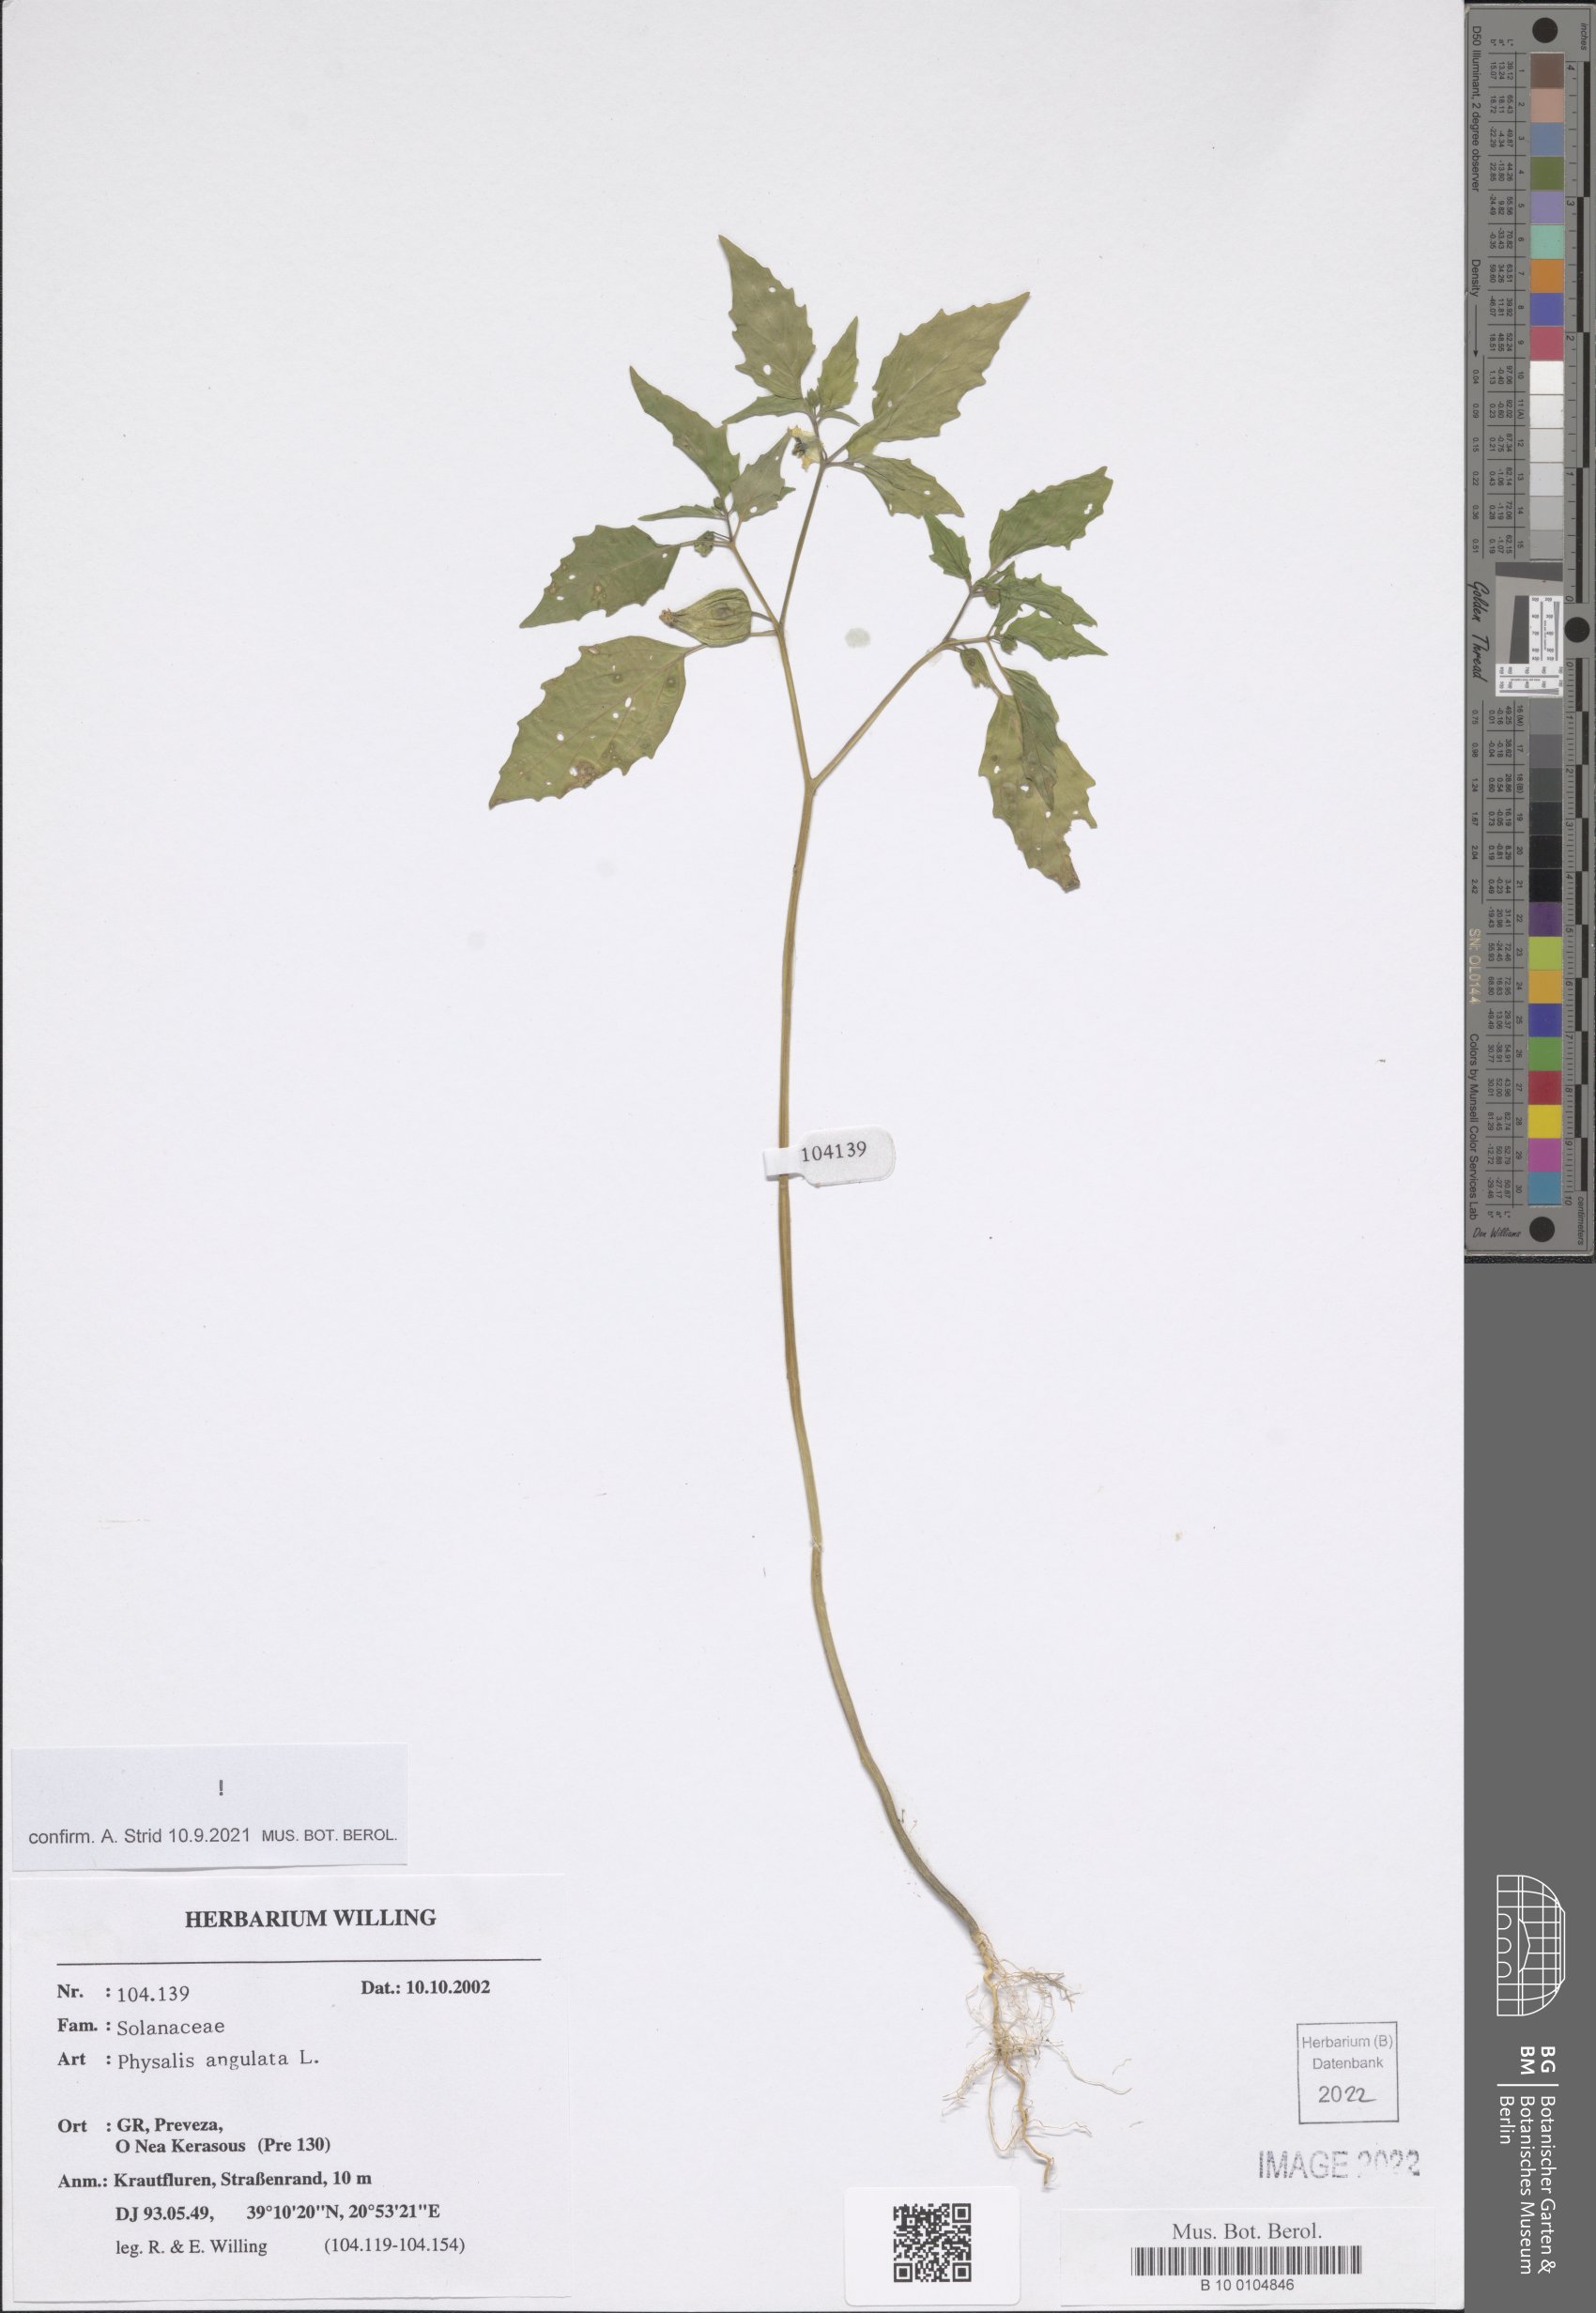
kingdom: Plantae
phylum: Tracheophyta
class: Magnoliopsida
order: Solanales
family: Solanaceae
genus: Physalis
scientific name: Physalis angulata
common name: Angular winter-cherry
